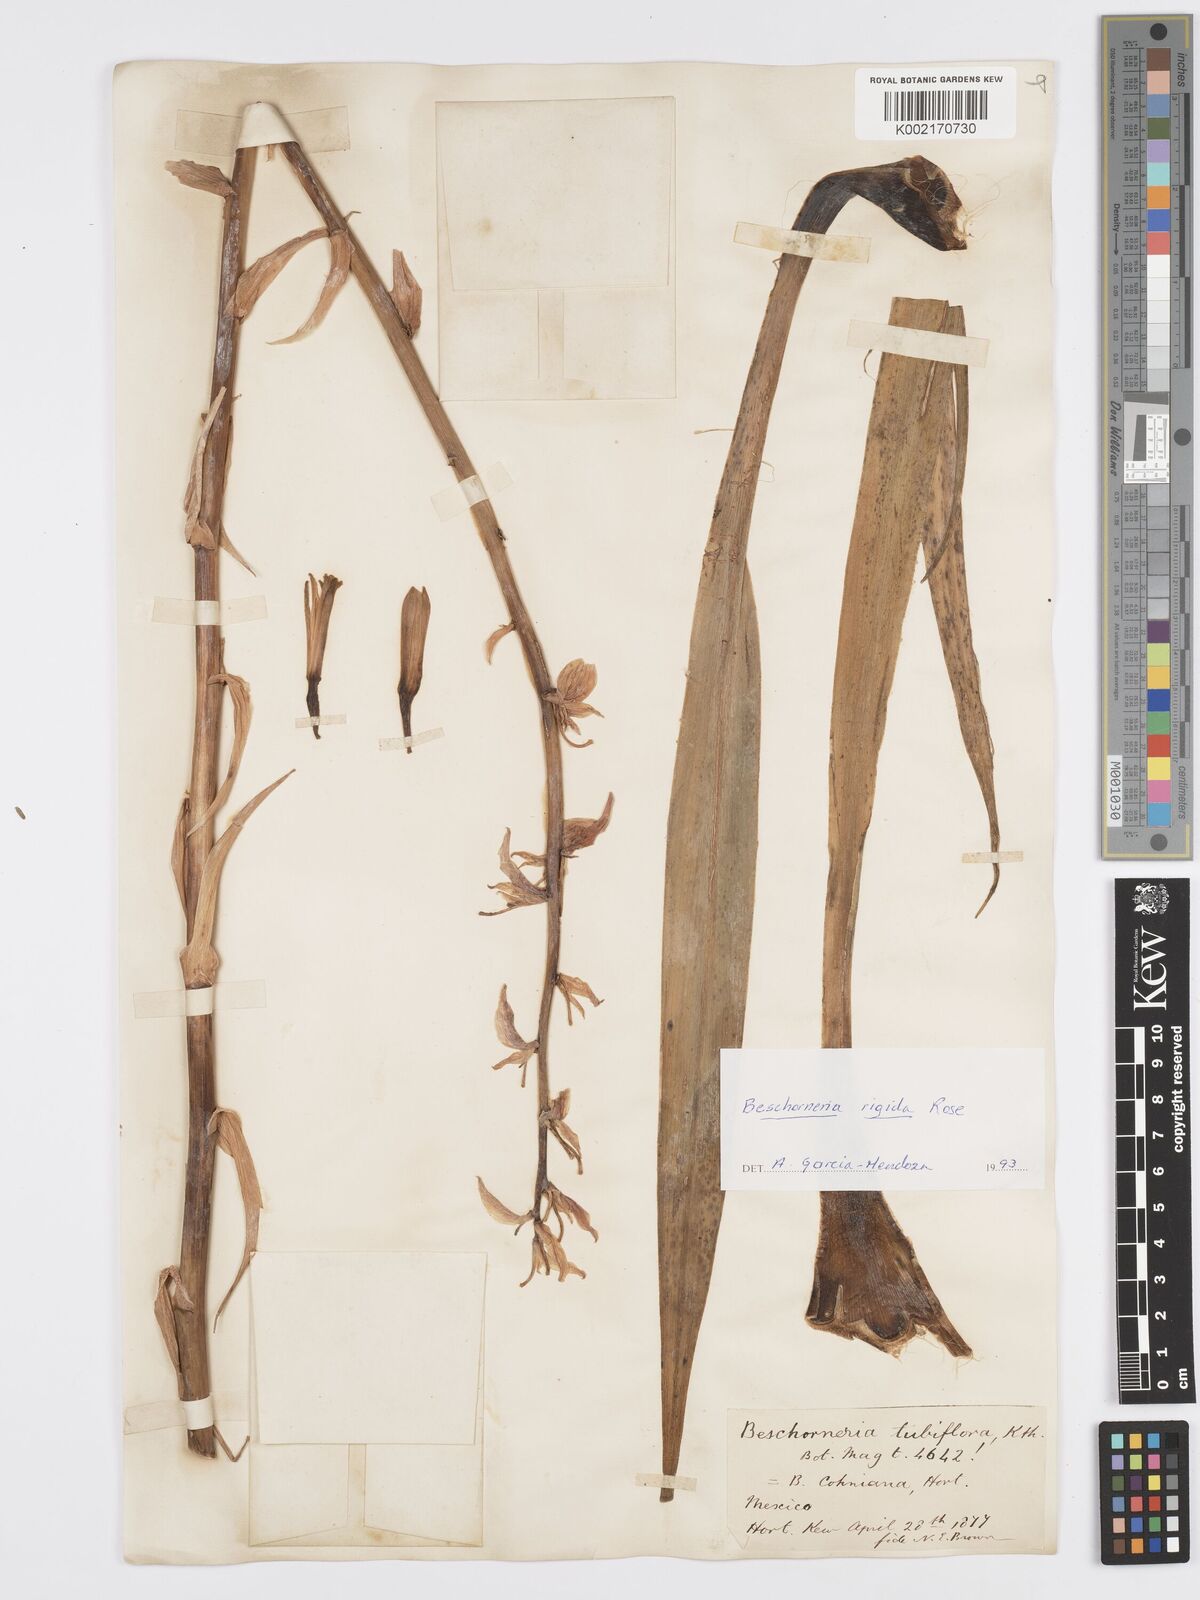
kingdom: Plantae
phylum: Tracheophyta
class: Liliopsida
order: Asparagales
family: Asparagaceae
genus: Beschorneria
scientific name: Beschorneria rigida
